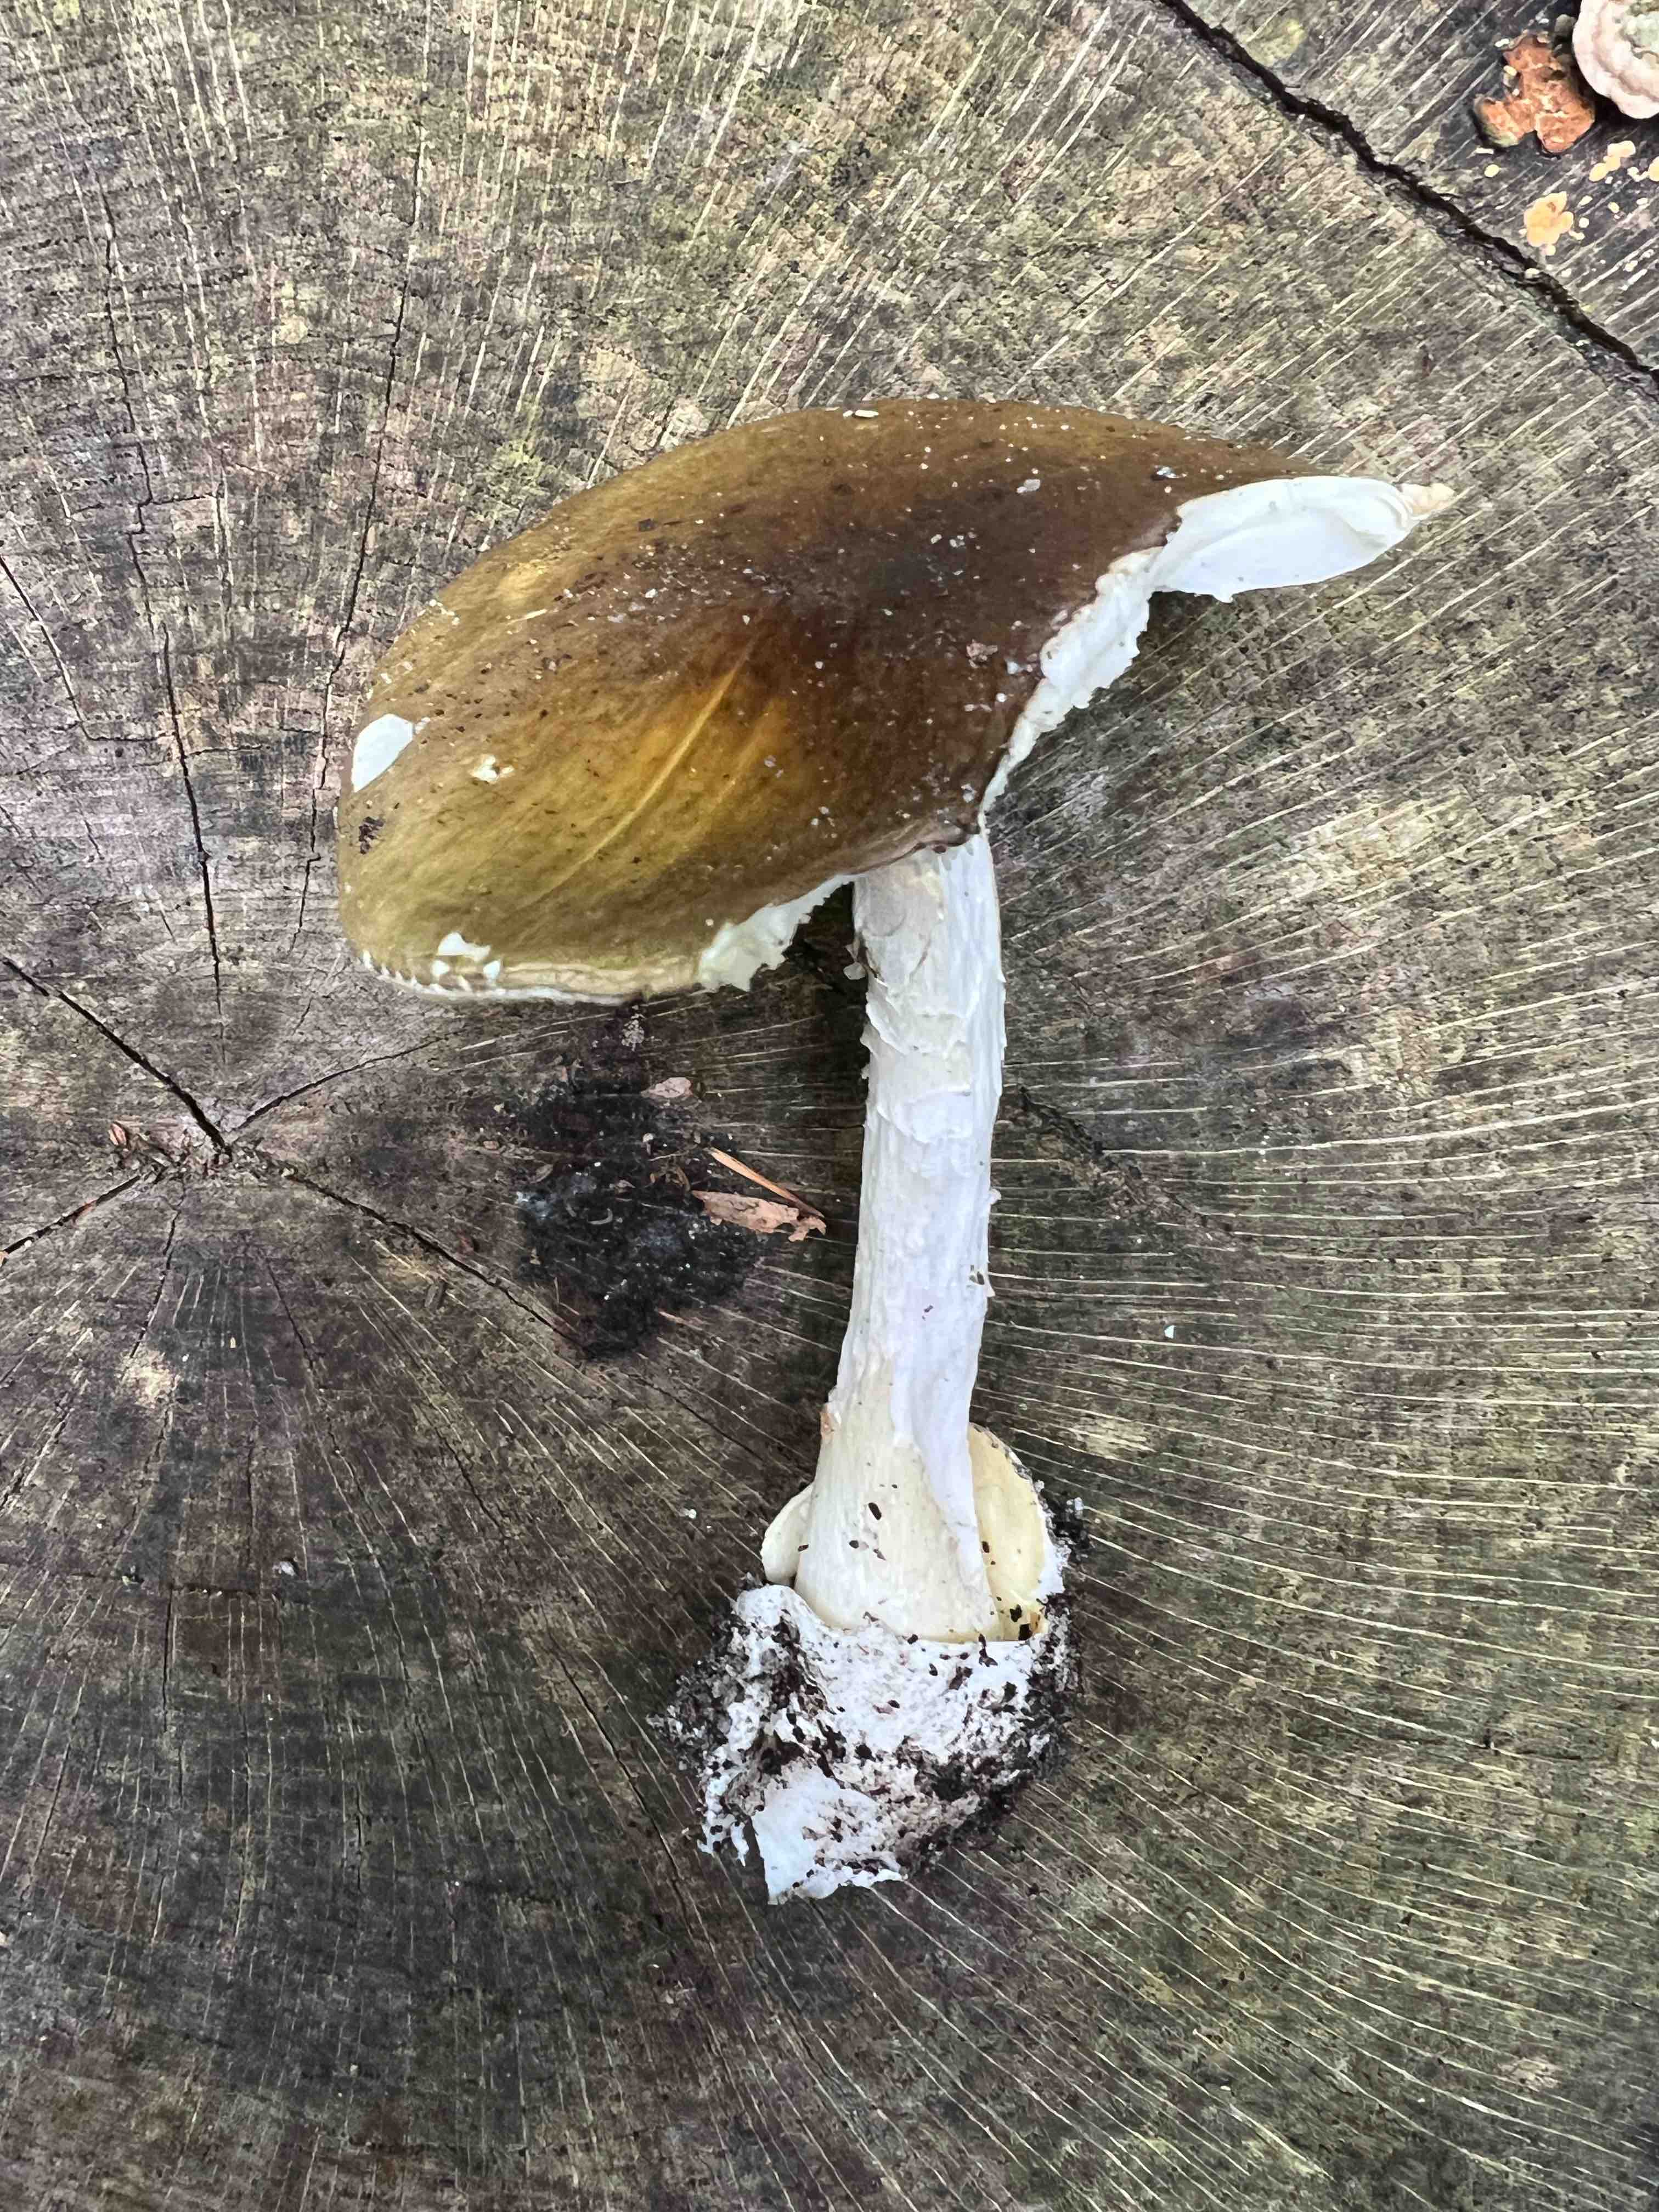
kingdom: Fungi
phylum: Basidiomycota
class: Agaricomycetes
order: Agaricales
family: Amanitaceae
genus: Amanita
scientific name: Amanita phalloides
